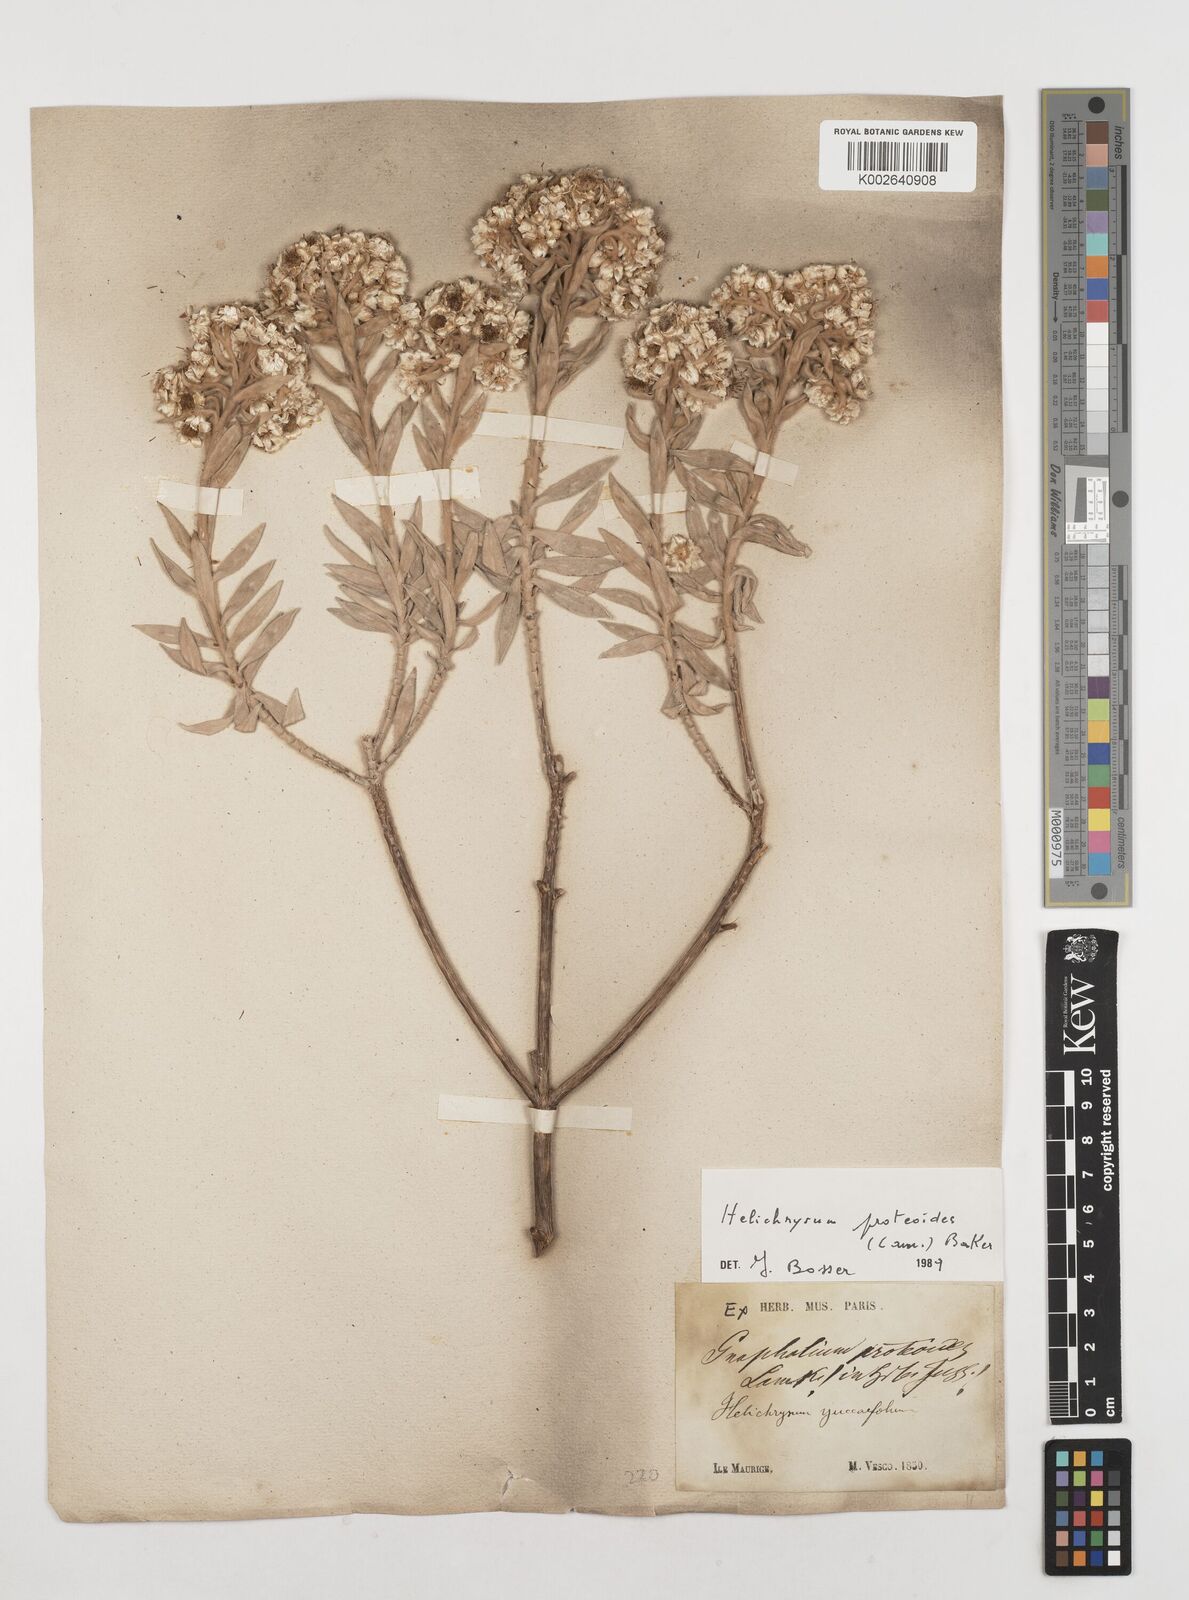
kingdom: Plantae
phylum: Tracheophyta
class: Magnoliopsida
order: Asterales
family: Asteraceae
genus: Helichrysum
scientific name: Helichrysum proteoides
